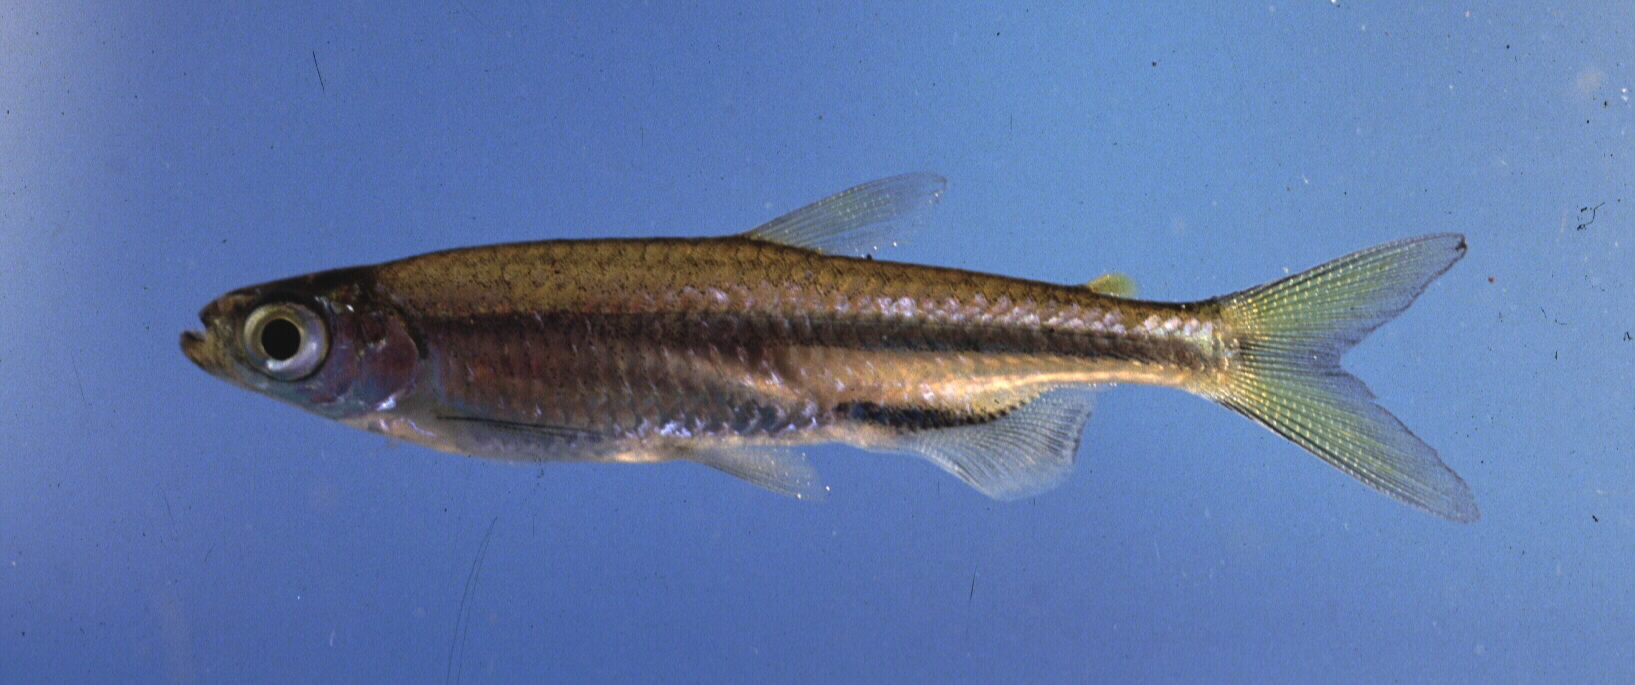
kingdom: Animalia
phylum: Chordata
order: Characiformes
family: Alestidae
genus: Rhabdalestes
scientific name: Rhabdalestes maunensis
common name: Slender robber
